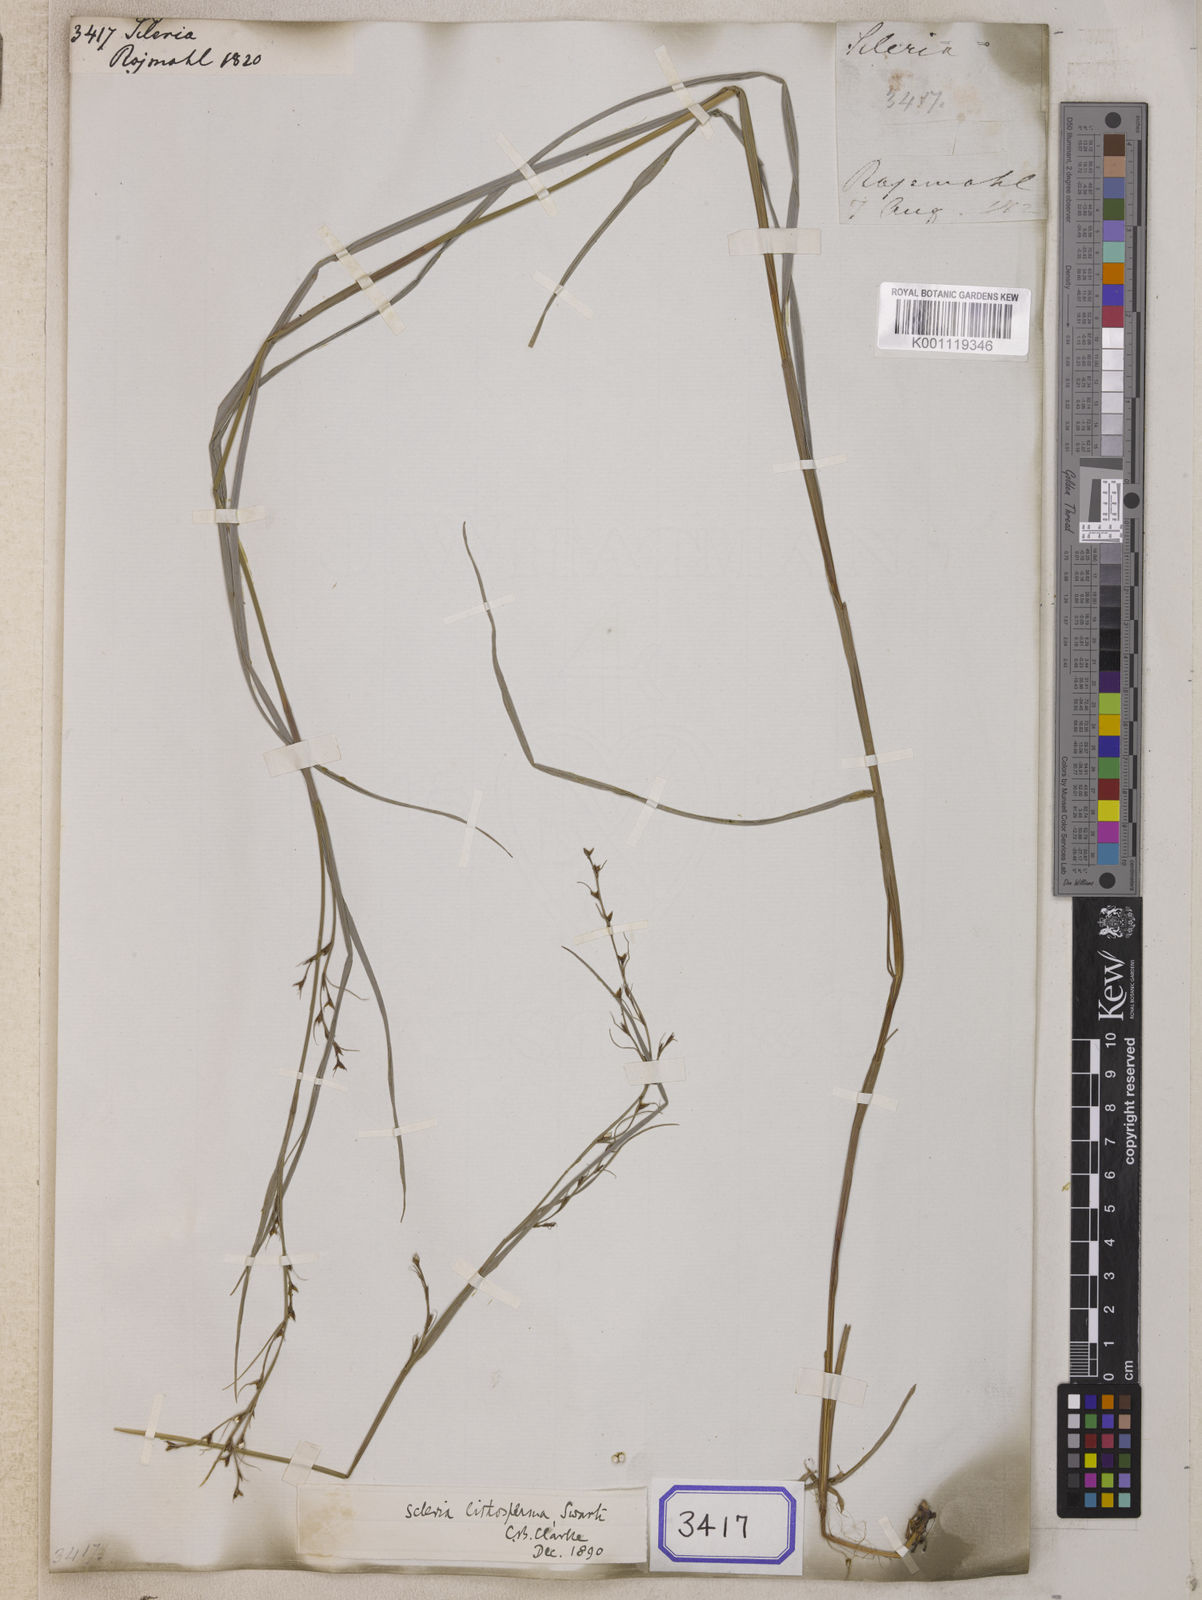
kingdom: Plantae
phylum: Tracheophyta
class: Liliopsida
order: Poales
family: Cyperaceae
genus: Scleria
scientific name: Scleria
